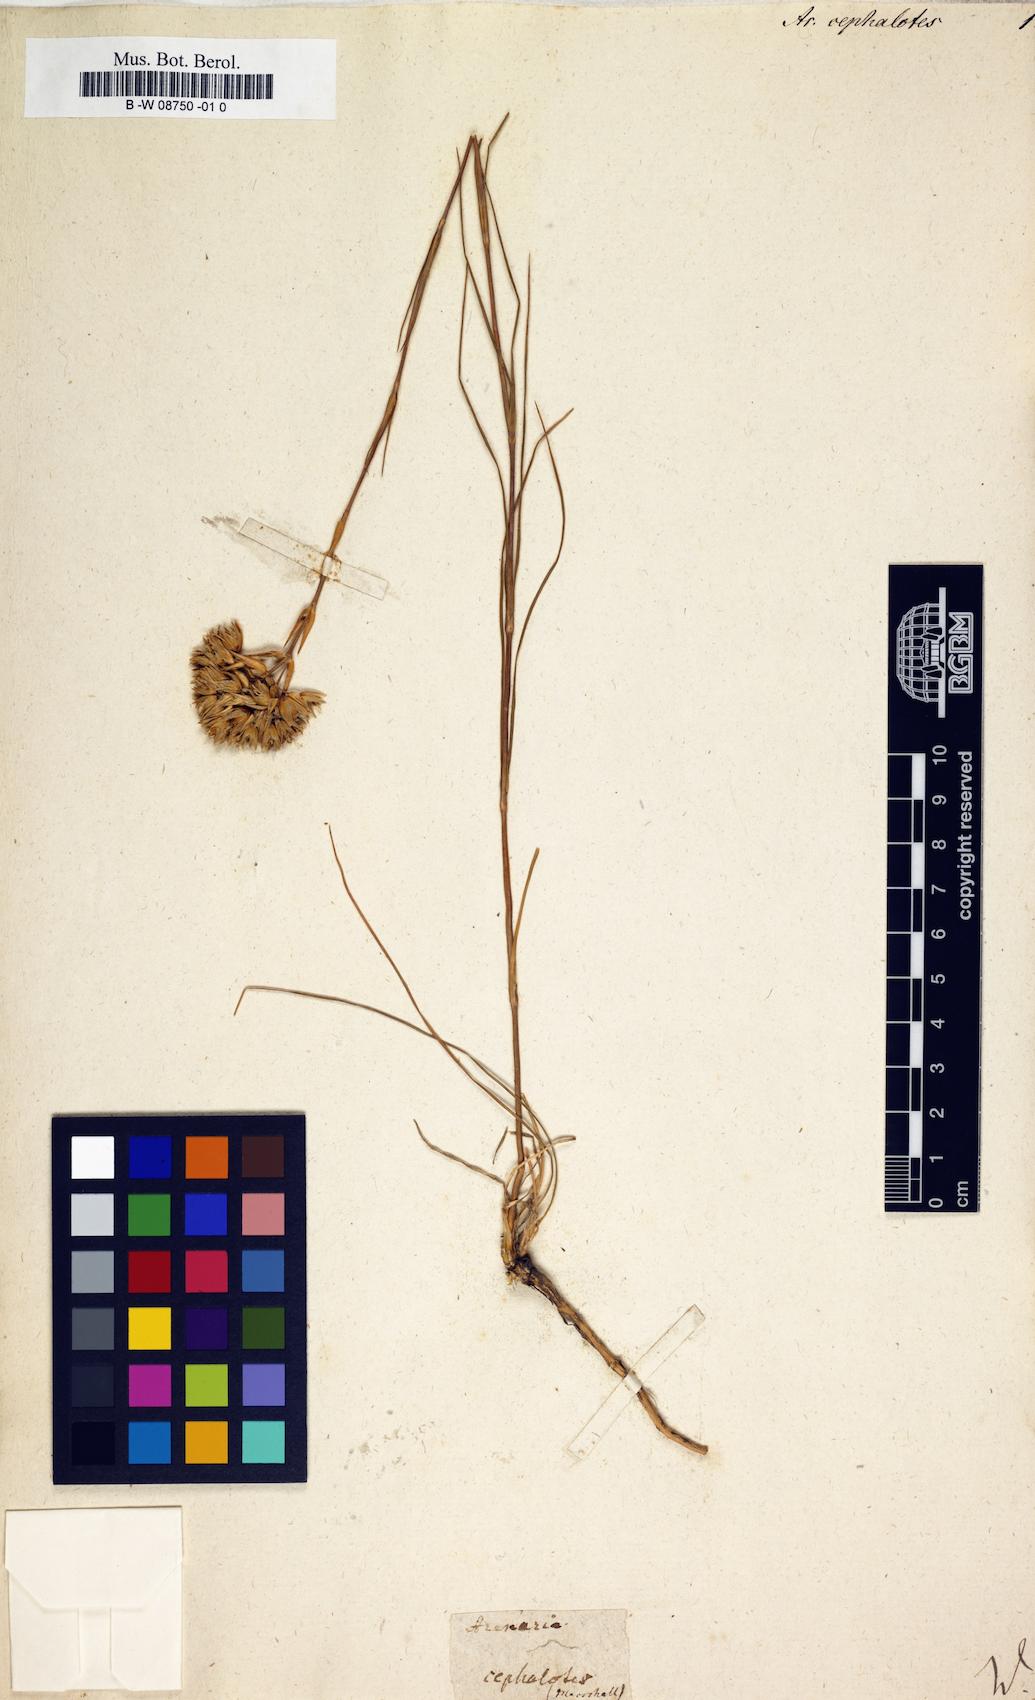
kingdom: Plantae
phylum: Tracheophyta
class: Magnoliopsida
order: Caryophyllales
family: Caryophyllaceae
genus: Eremogone
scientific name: Eremogone cephalotes
